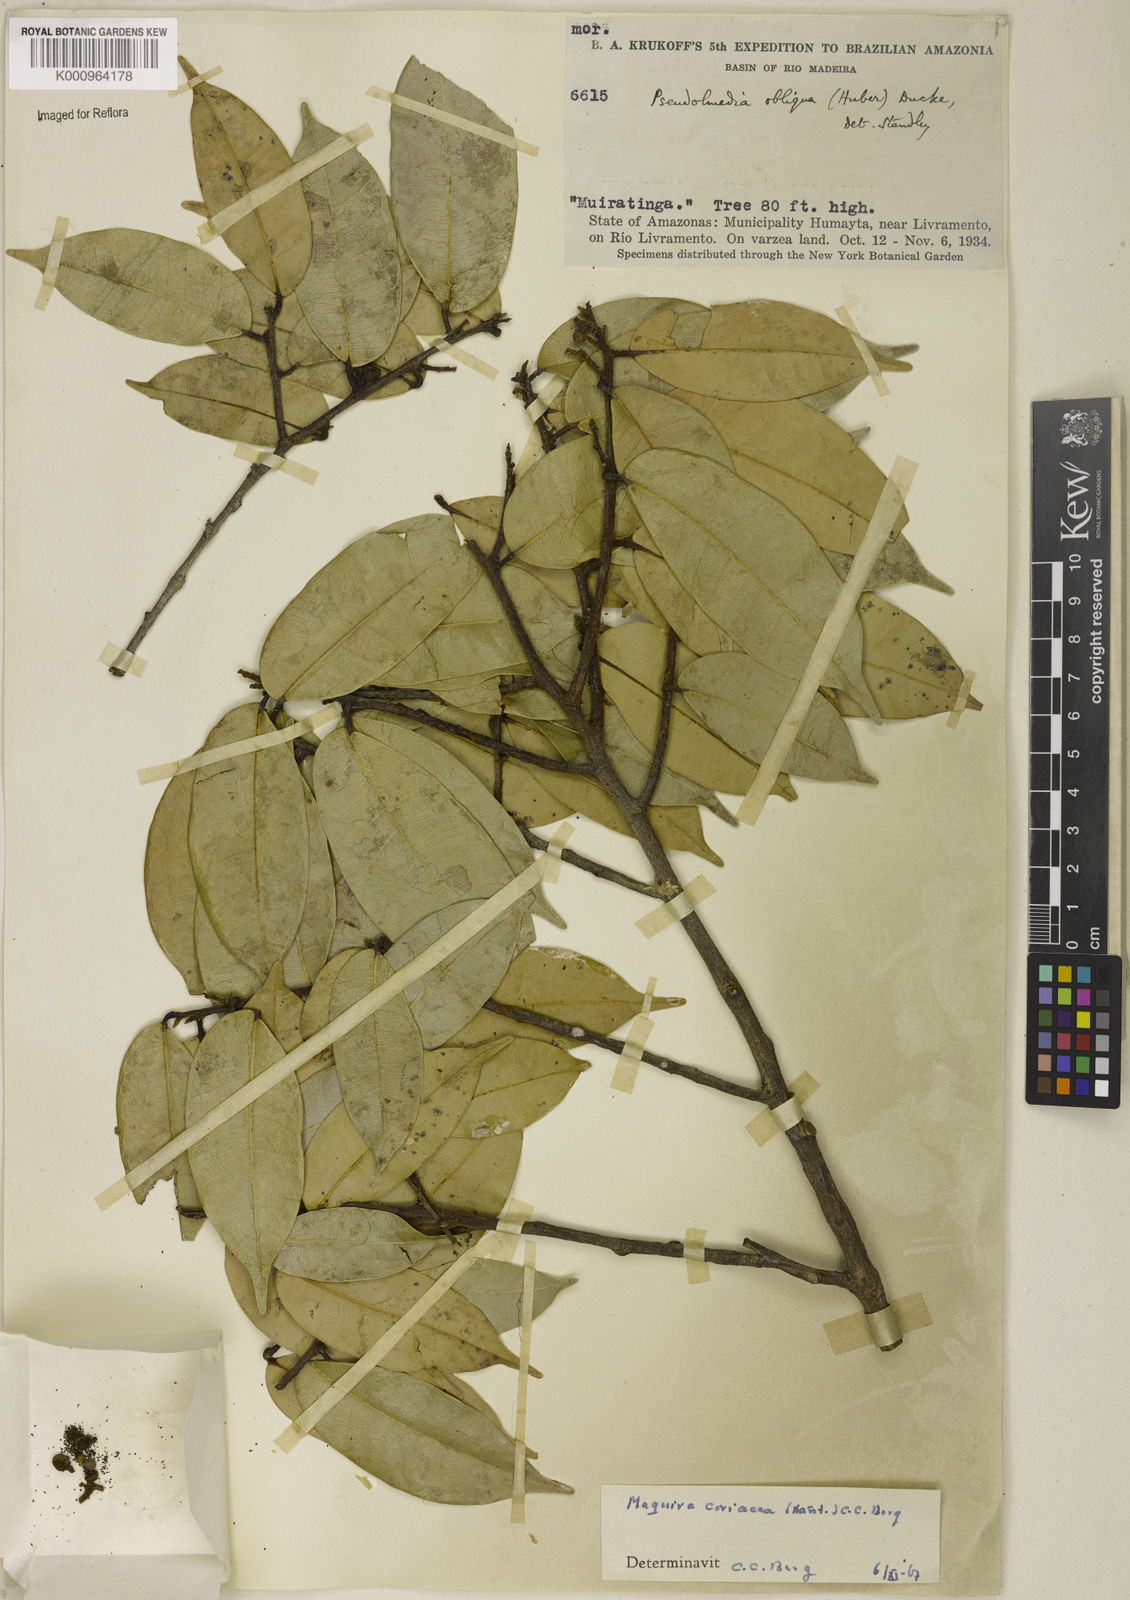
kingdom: Plantae
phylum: Tracheophyta
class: Magnoliopsida
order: Rosales
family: Moraceae
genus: Maquira
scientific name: Maquira coriacea
